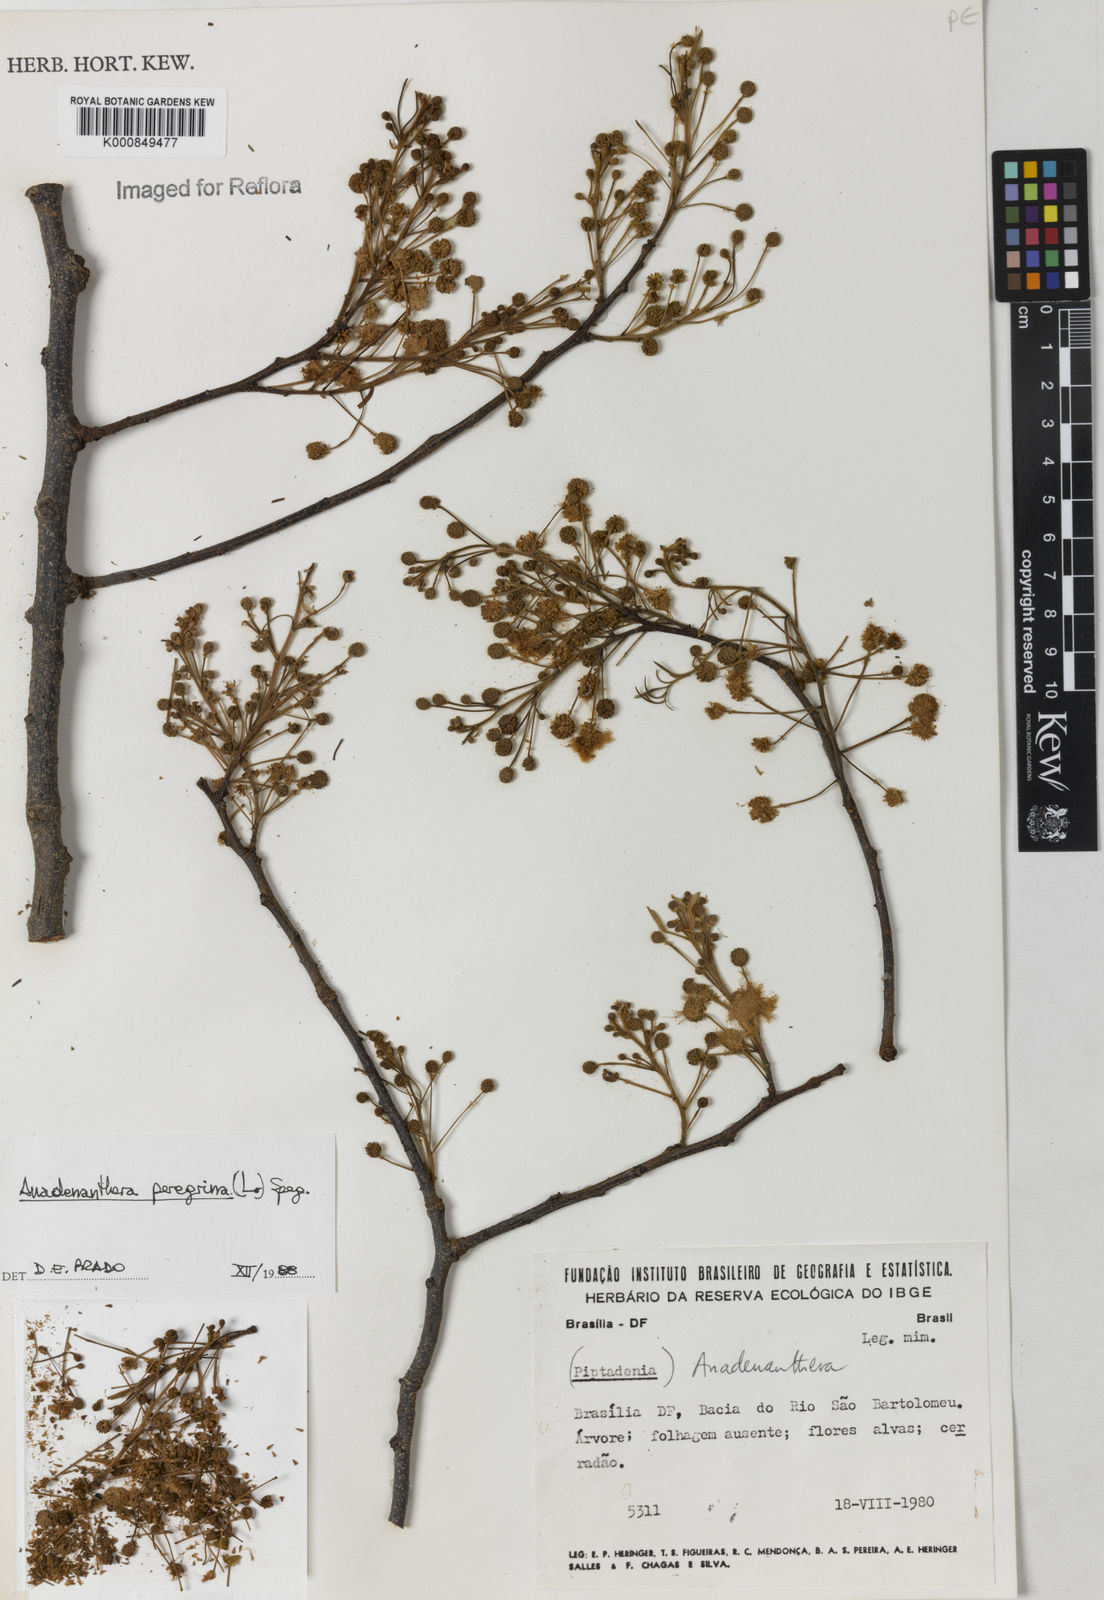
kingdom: Plantae
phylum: Tracheophyta
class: Magnoliopsida
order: Fabales
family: Fabaceae
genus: Anadenanthera
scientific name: Anadenanthera peregrina
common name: Cohoba
